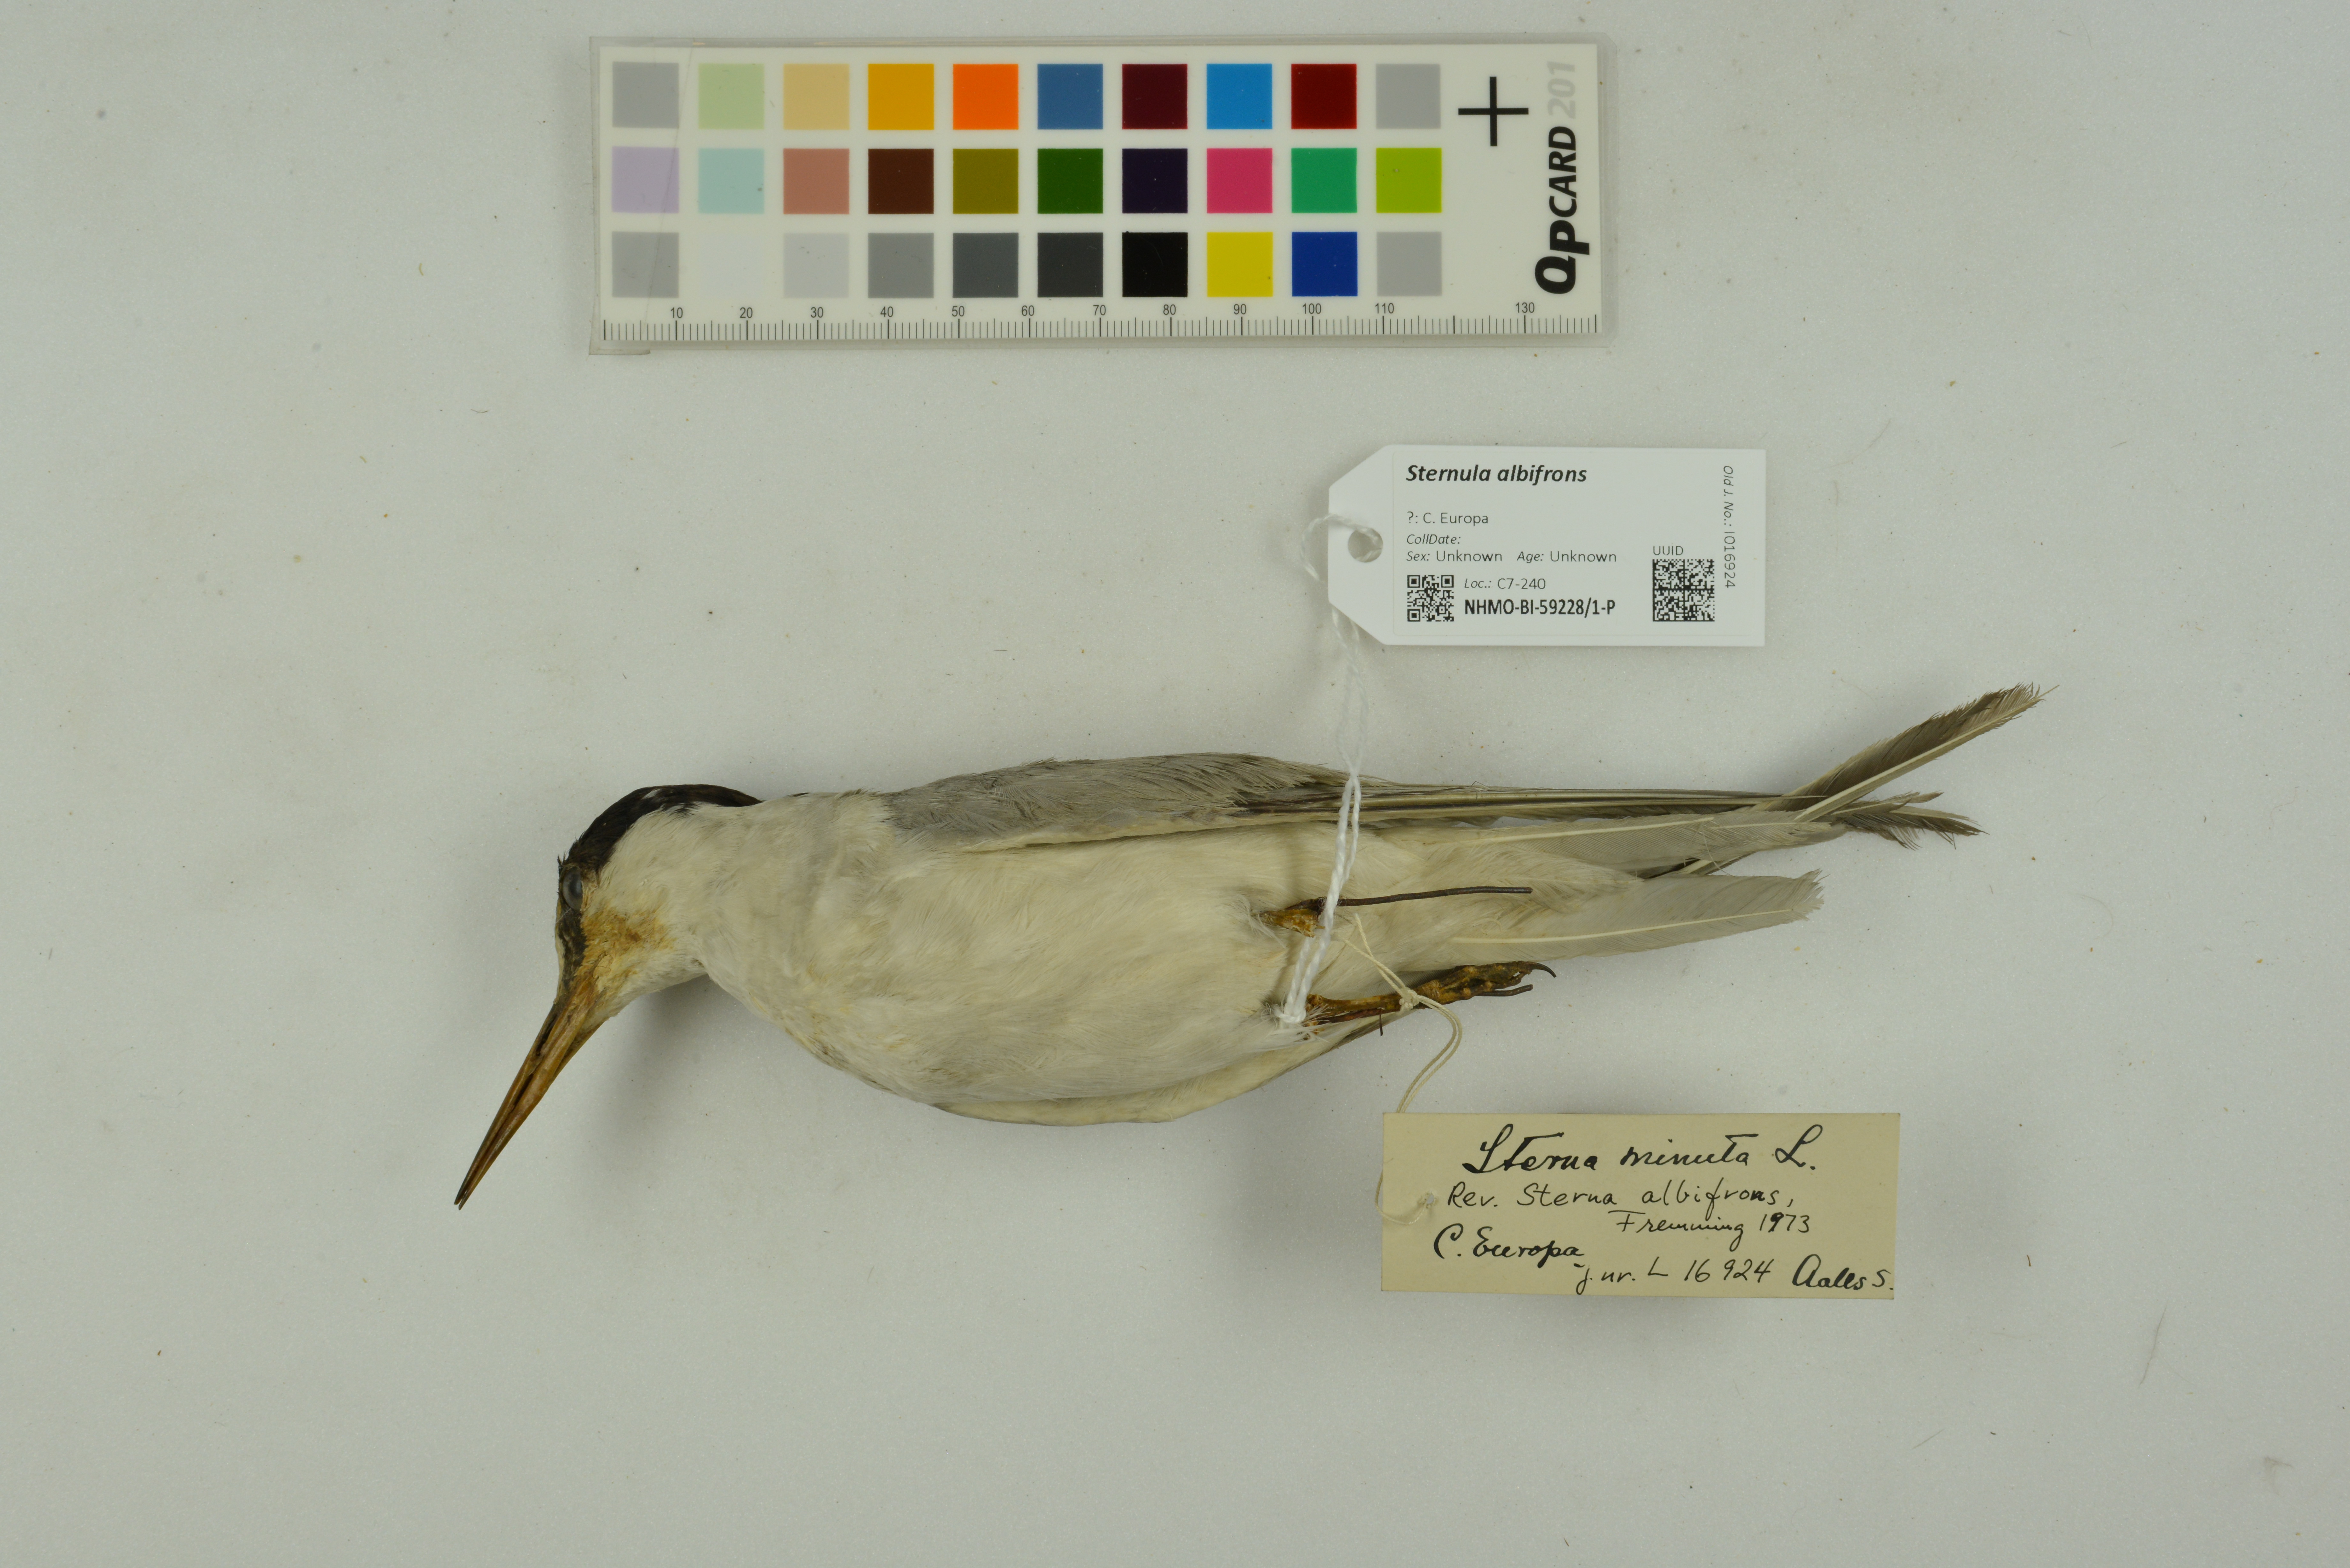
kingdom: Animalia
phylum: Chordata
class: Aves
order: Charadriiformes
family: Laridae
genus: Sternula
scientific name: Sternula albifrons
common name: Little tern
